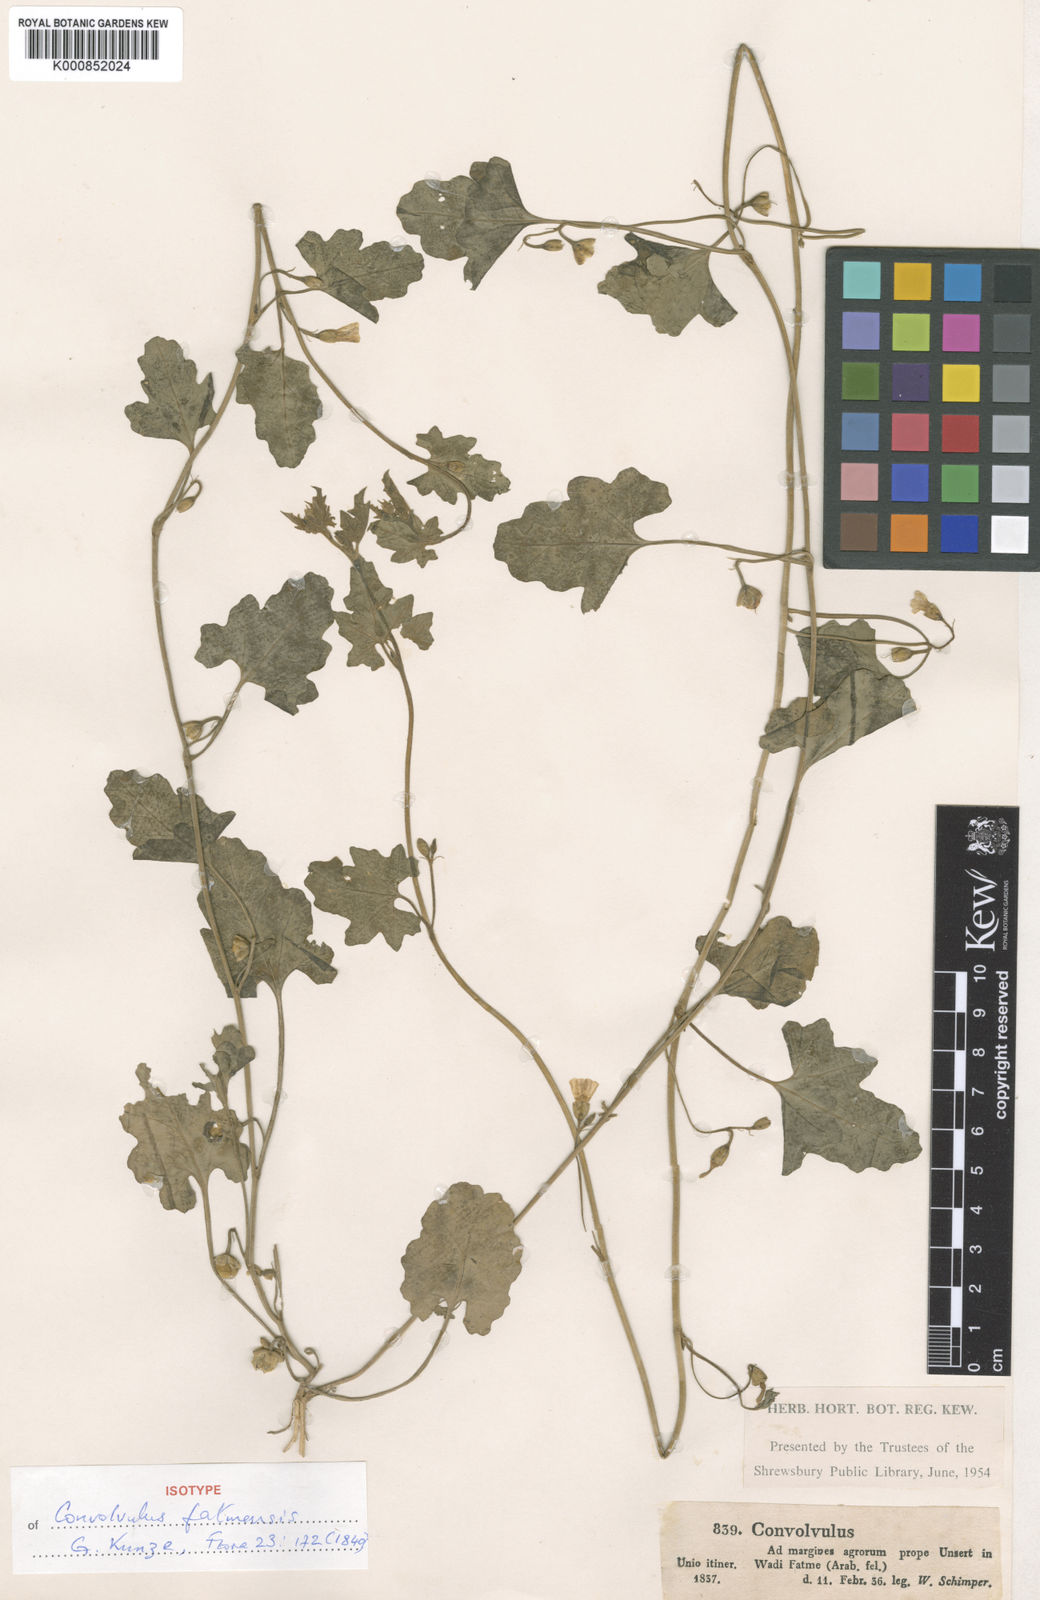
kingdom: Plantae
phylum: Tracheophyta
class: Magnoliopsida
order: Solanales
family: Convolvulaceae
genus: Convolvulus
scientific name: Convolvulus fatmensis
